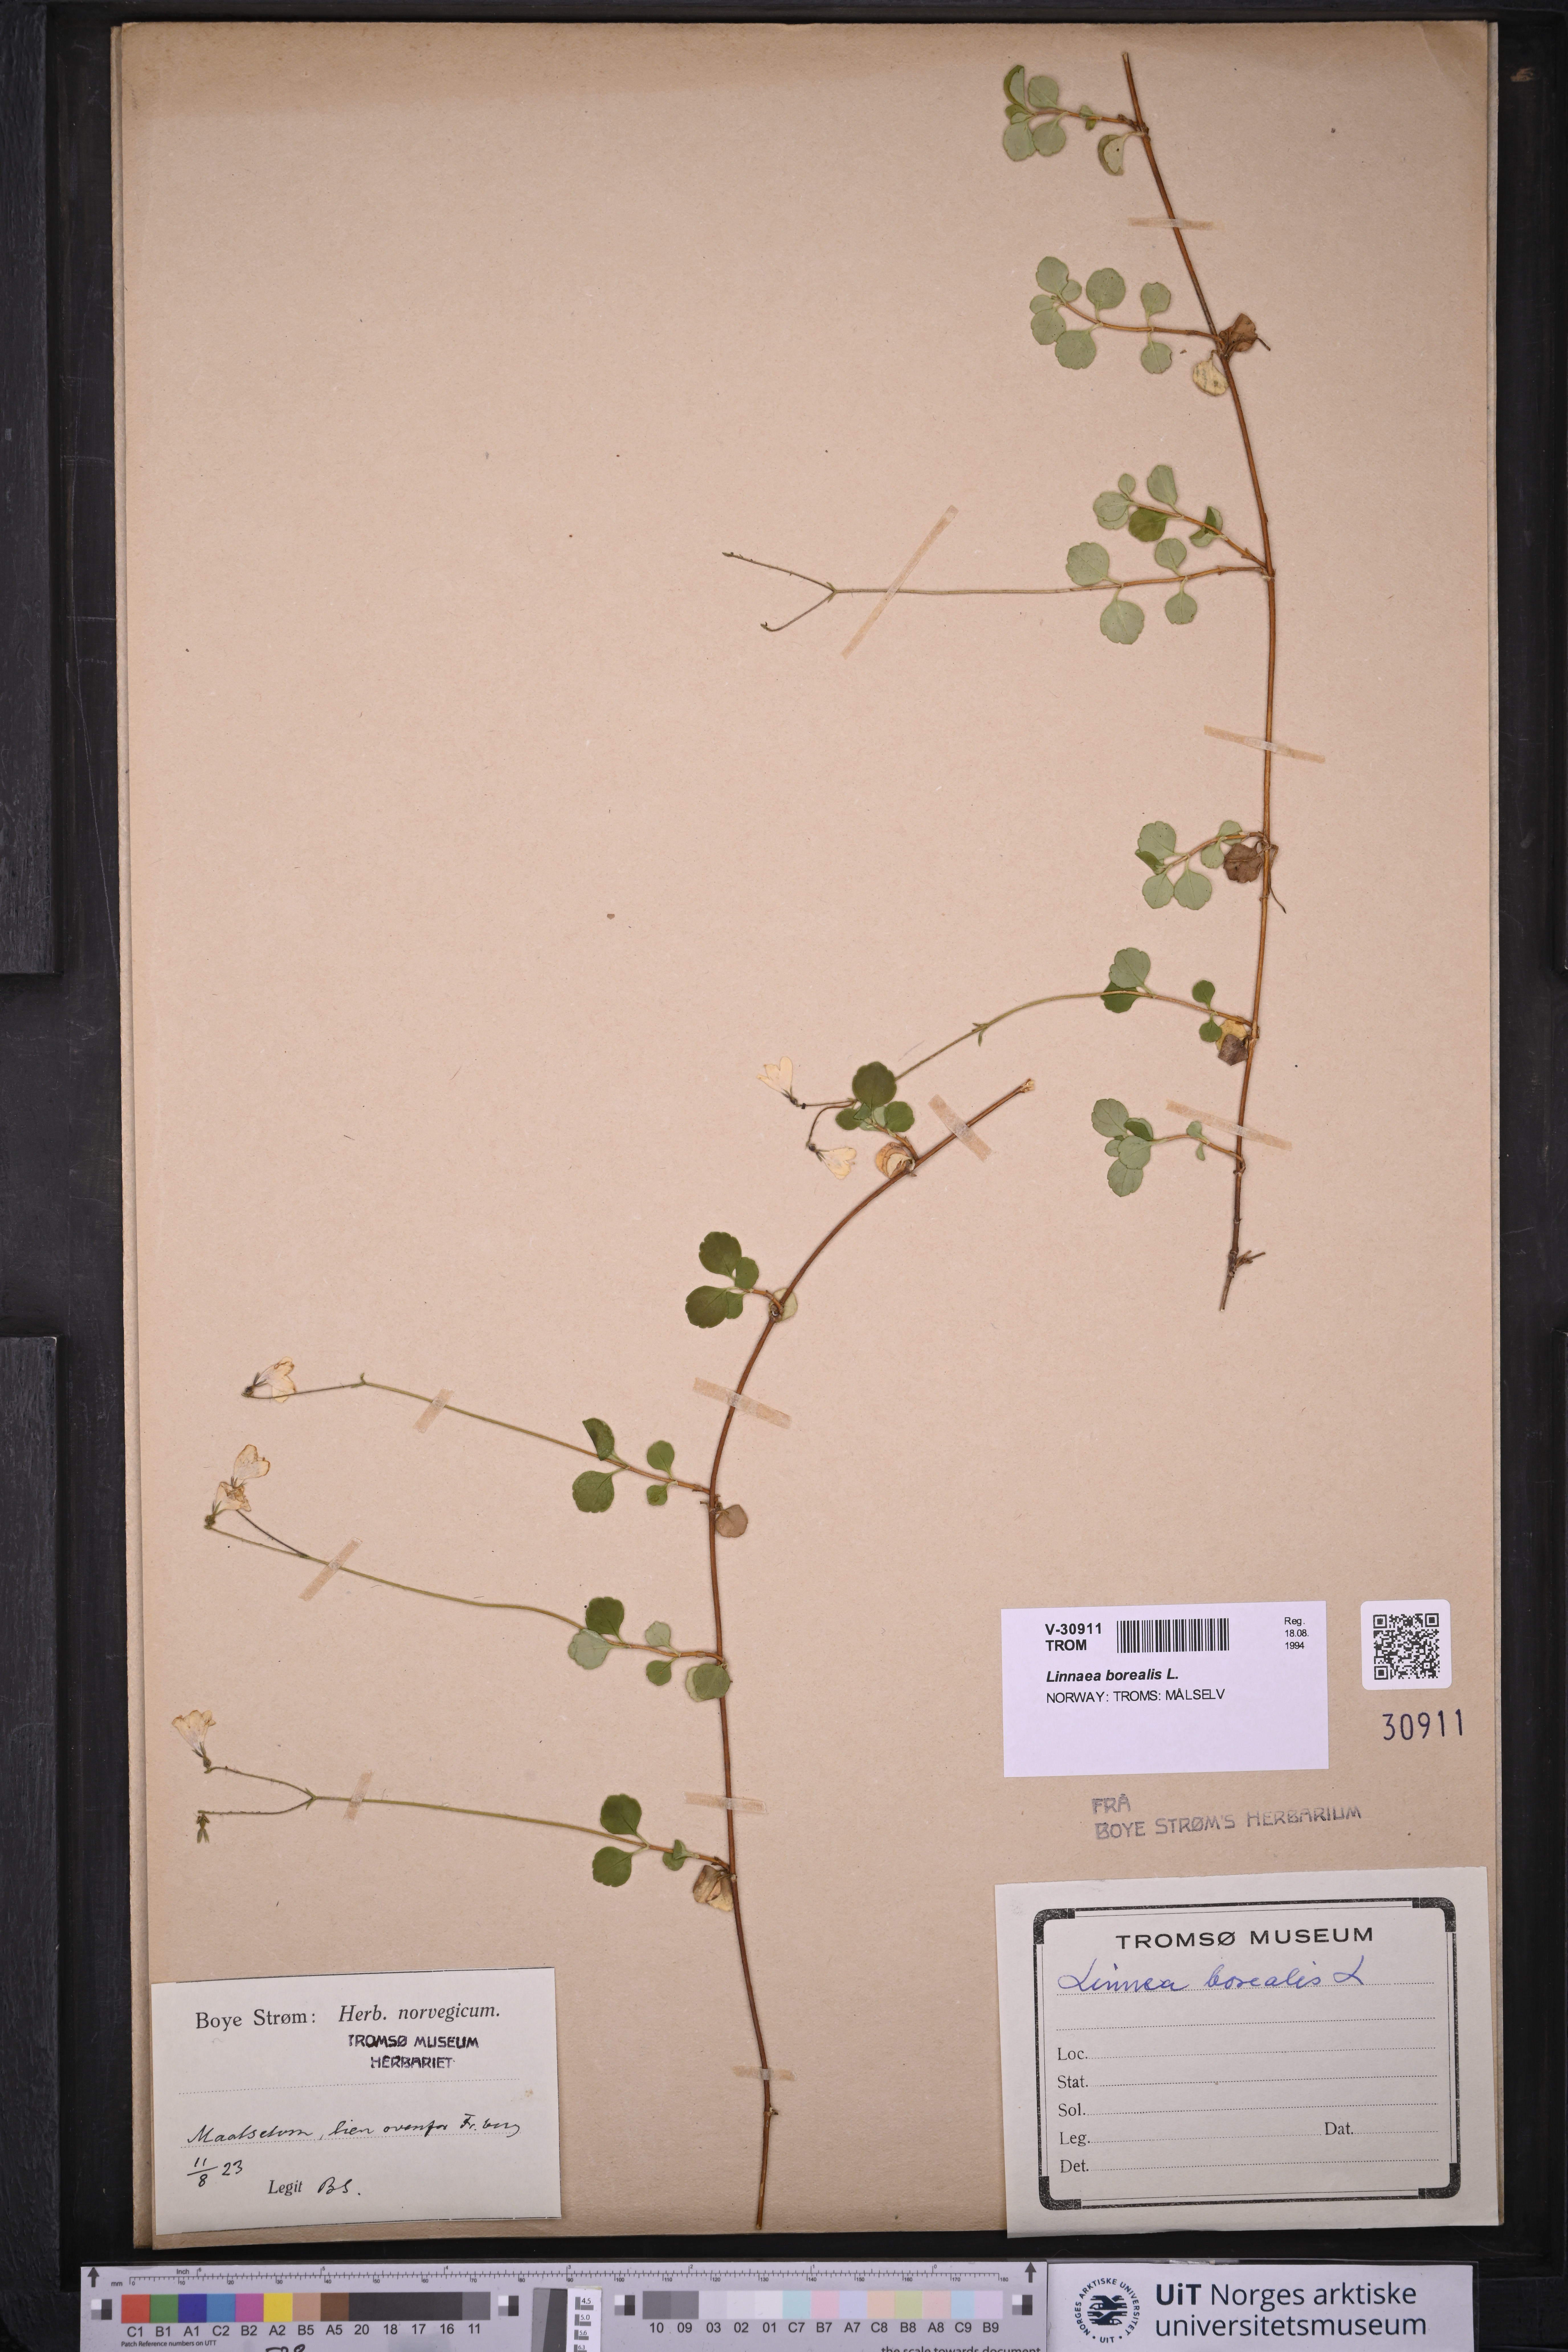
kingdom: Plantae
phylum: Tracheophyta
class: Magnoliopsida
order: Dipsacales
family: Caprifoliaceae
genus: Linnaea
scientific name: Linnaea borealis
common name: Twinflower
